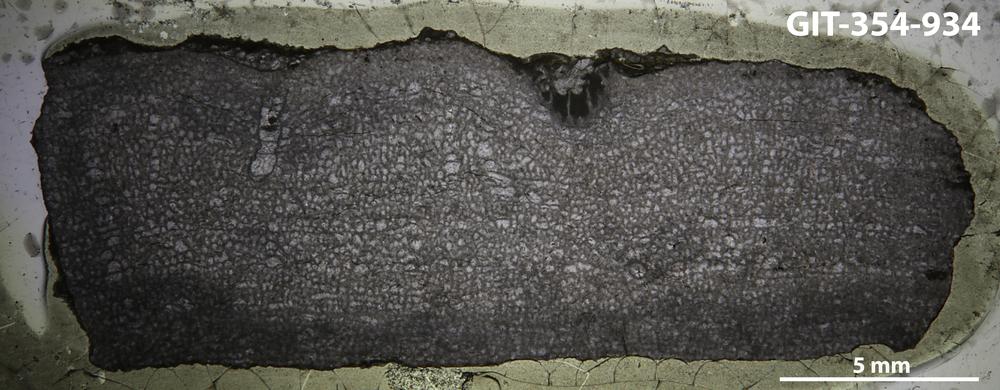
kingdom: Animalia
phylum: Porifera
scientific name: Porifera
